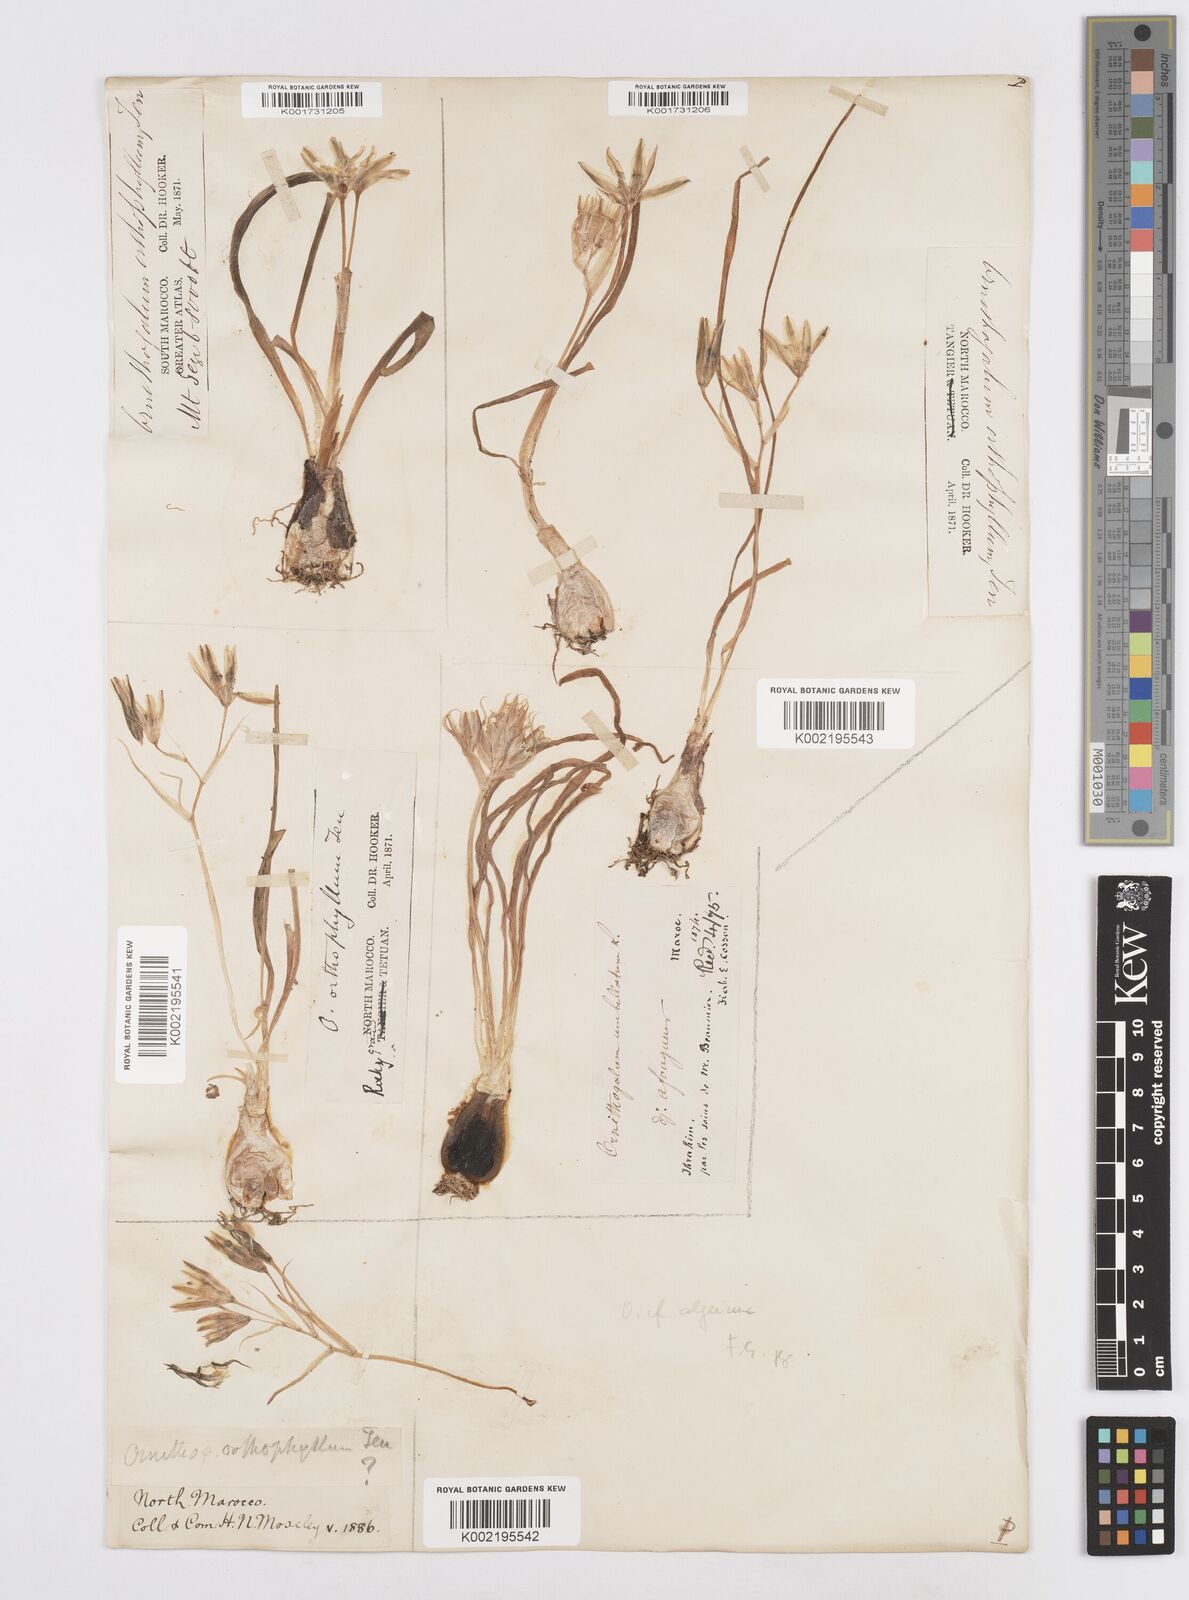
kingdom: Plantae
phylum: Tracheophyta
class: Liliopsida
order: Asparagales
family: Asparagaceae
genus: Ornithogalum
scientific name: Ornithogalum baeticum
